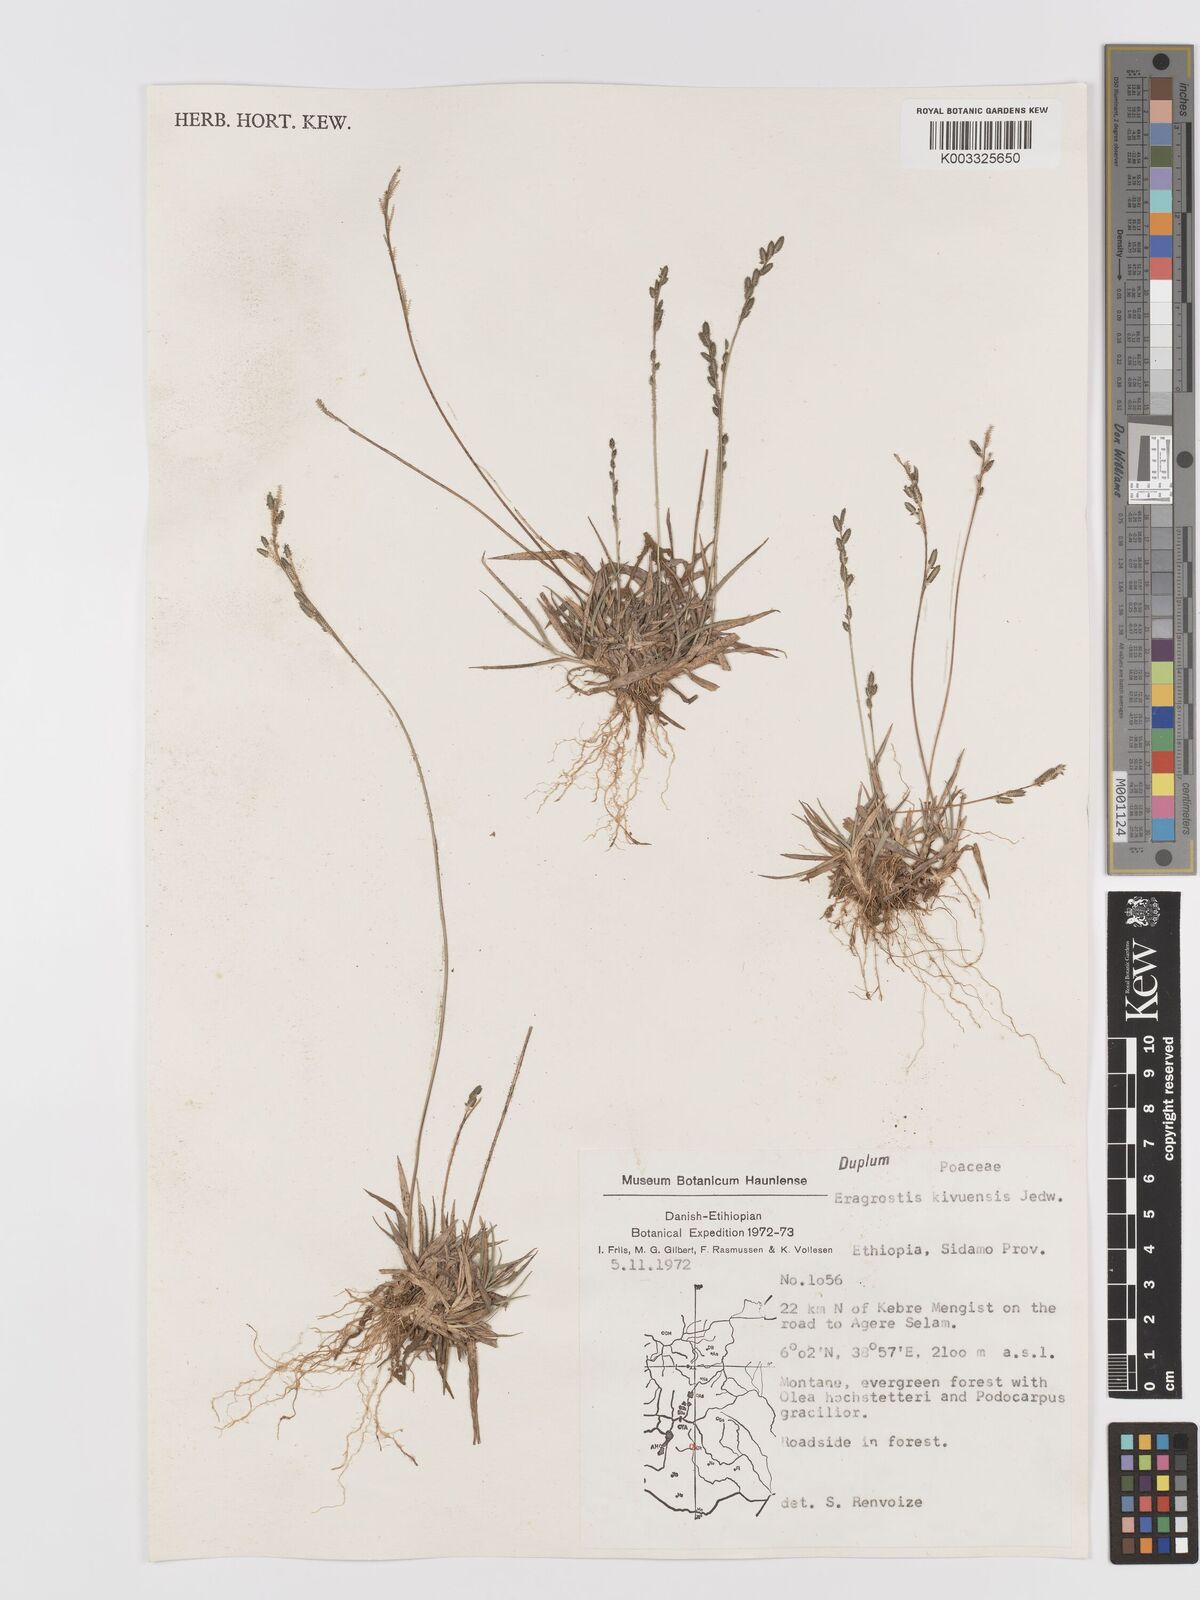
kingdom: Plantae
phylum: Tracheophyta
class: Liliopsida
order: Poales
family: Poaceae
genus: Eragrostis
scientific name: Eragrostis schweinfurthii
